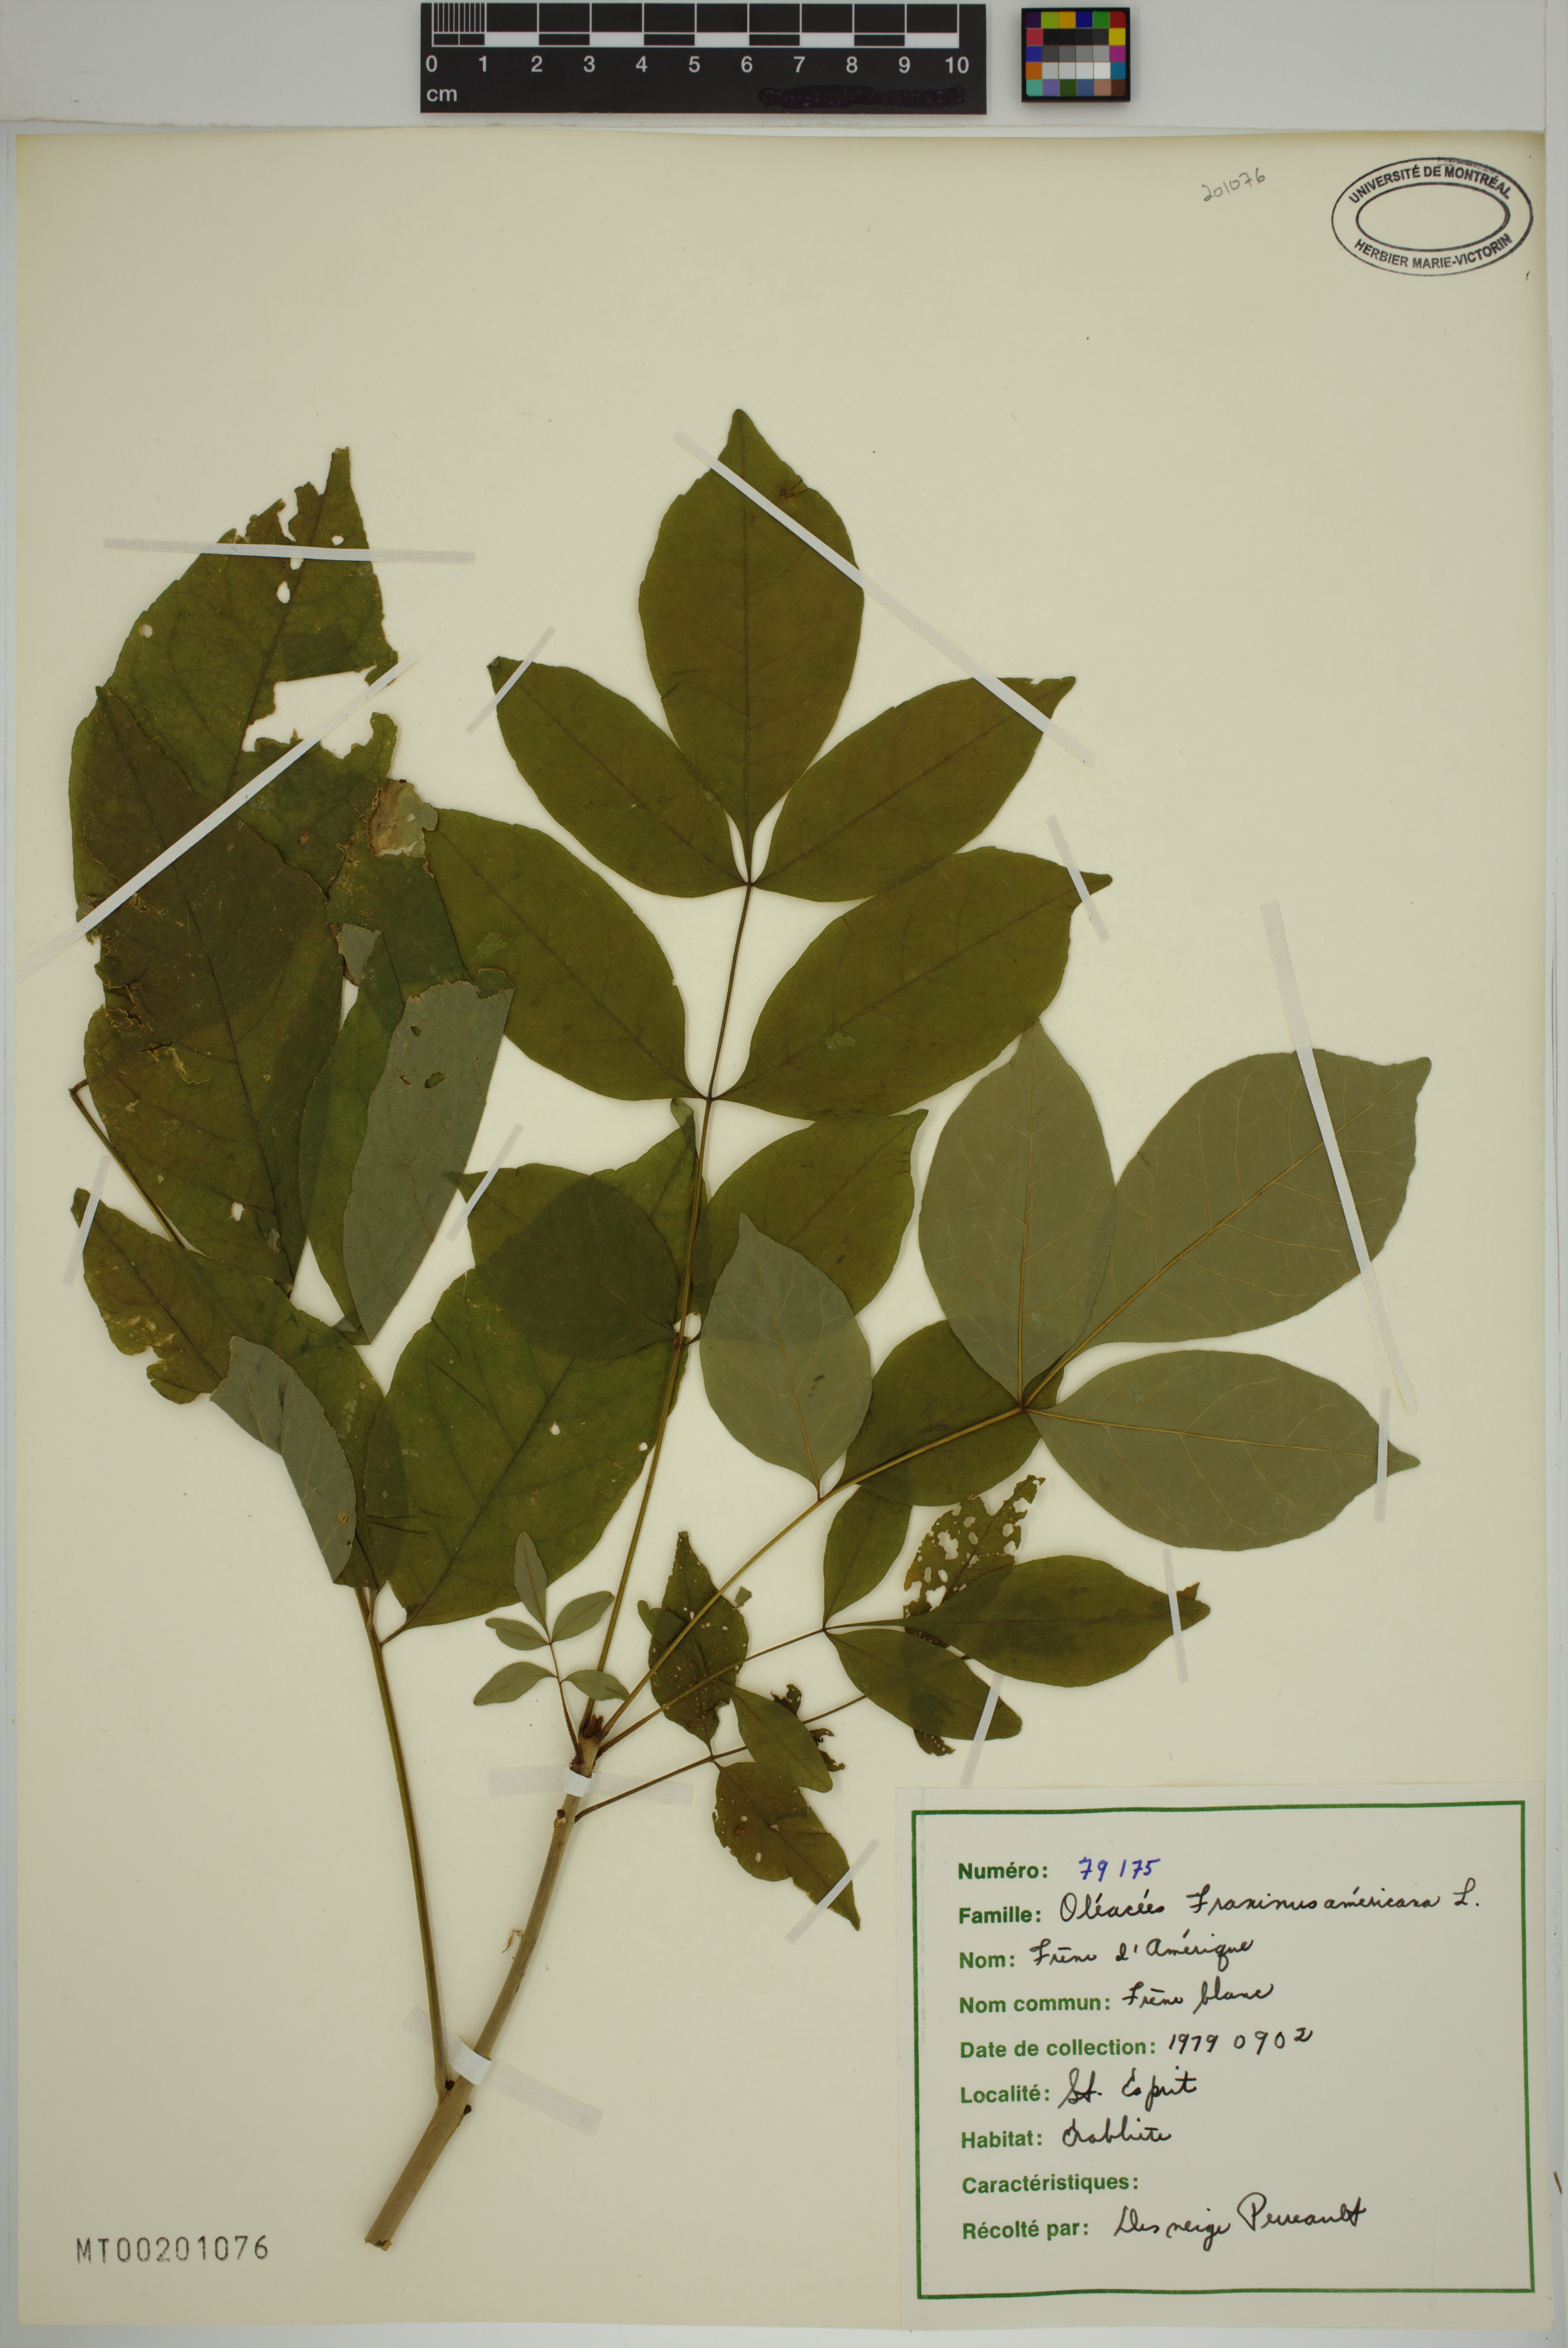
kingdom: Plantae
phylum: Tracheophyta
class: Magnoliopsida
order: Lamiales
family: Oleaceae
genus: Fraxinus
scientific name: Fraxinus pennsylvanica
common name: Green ash
